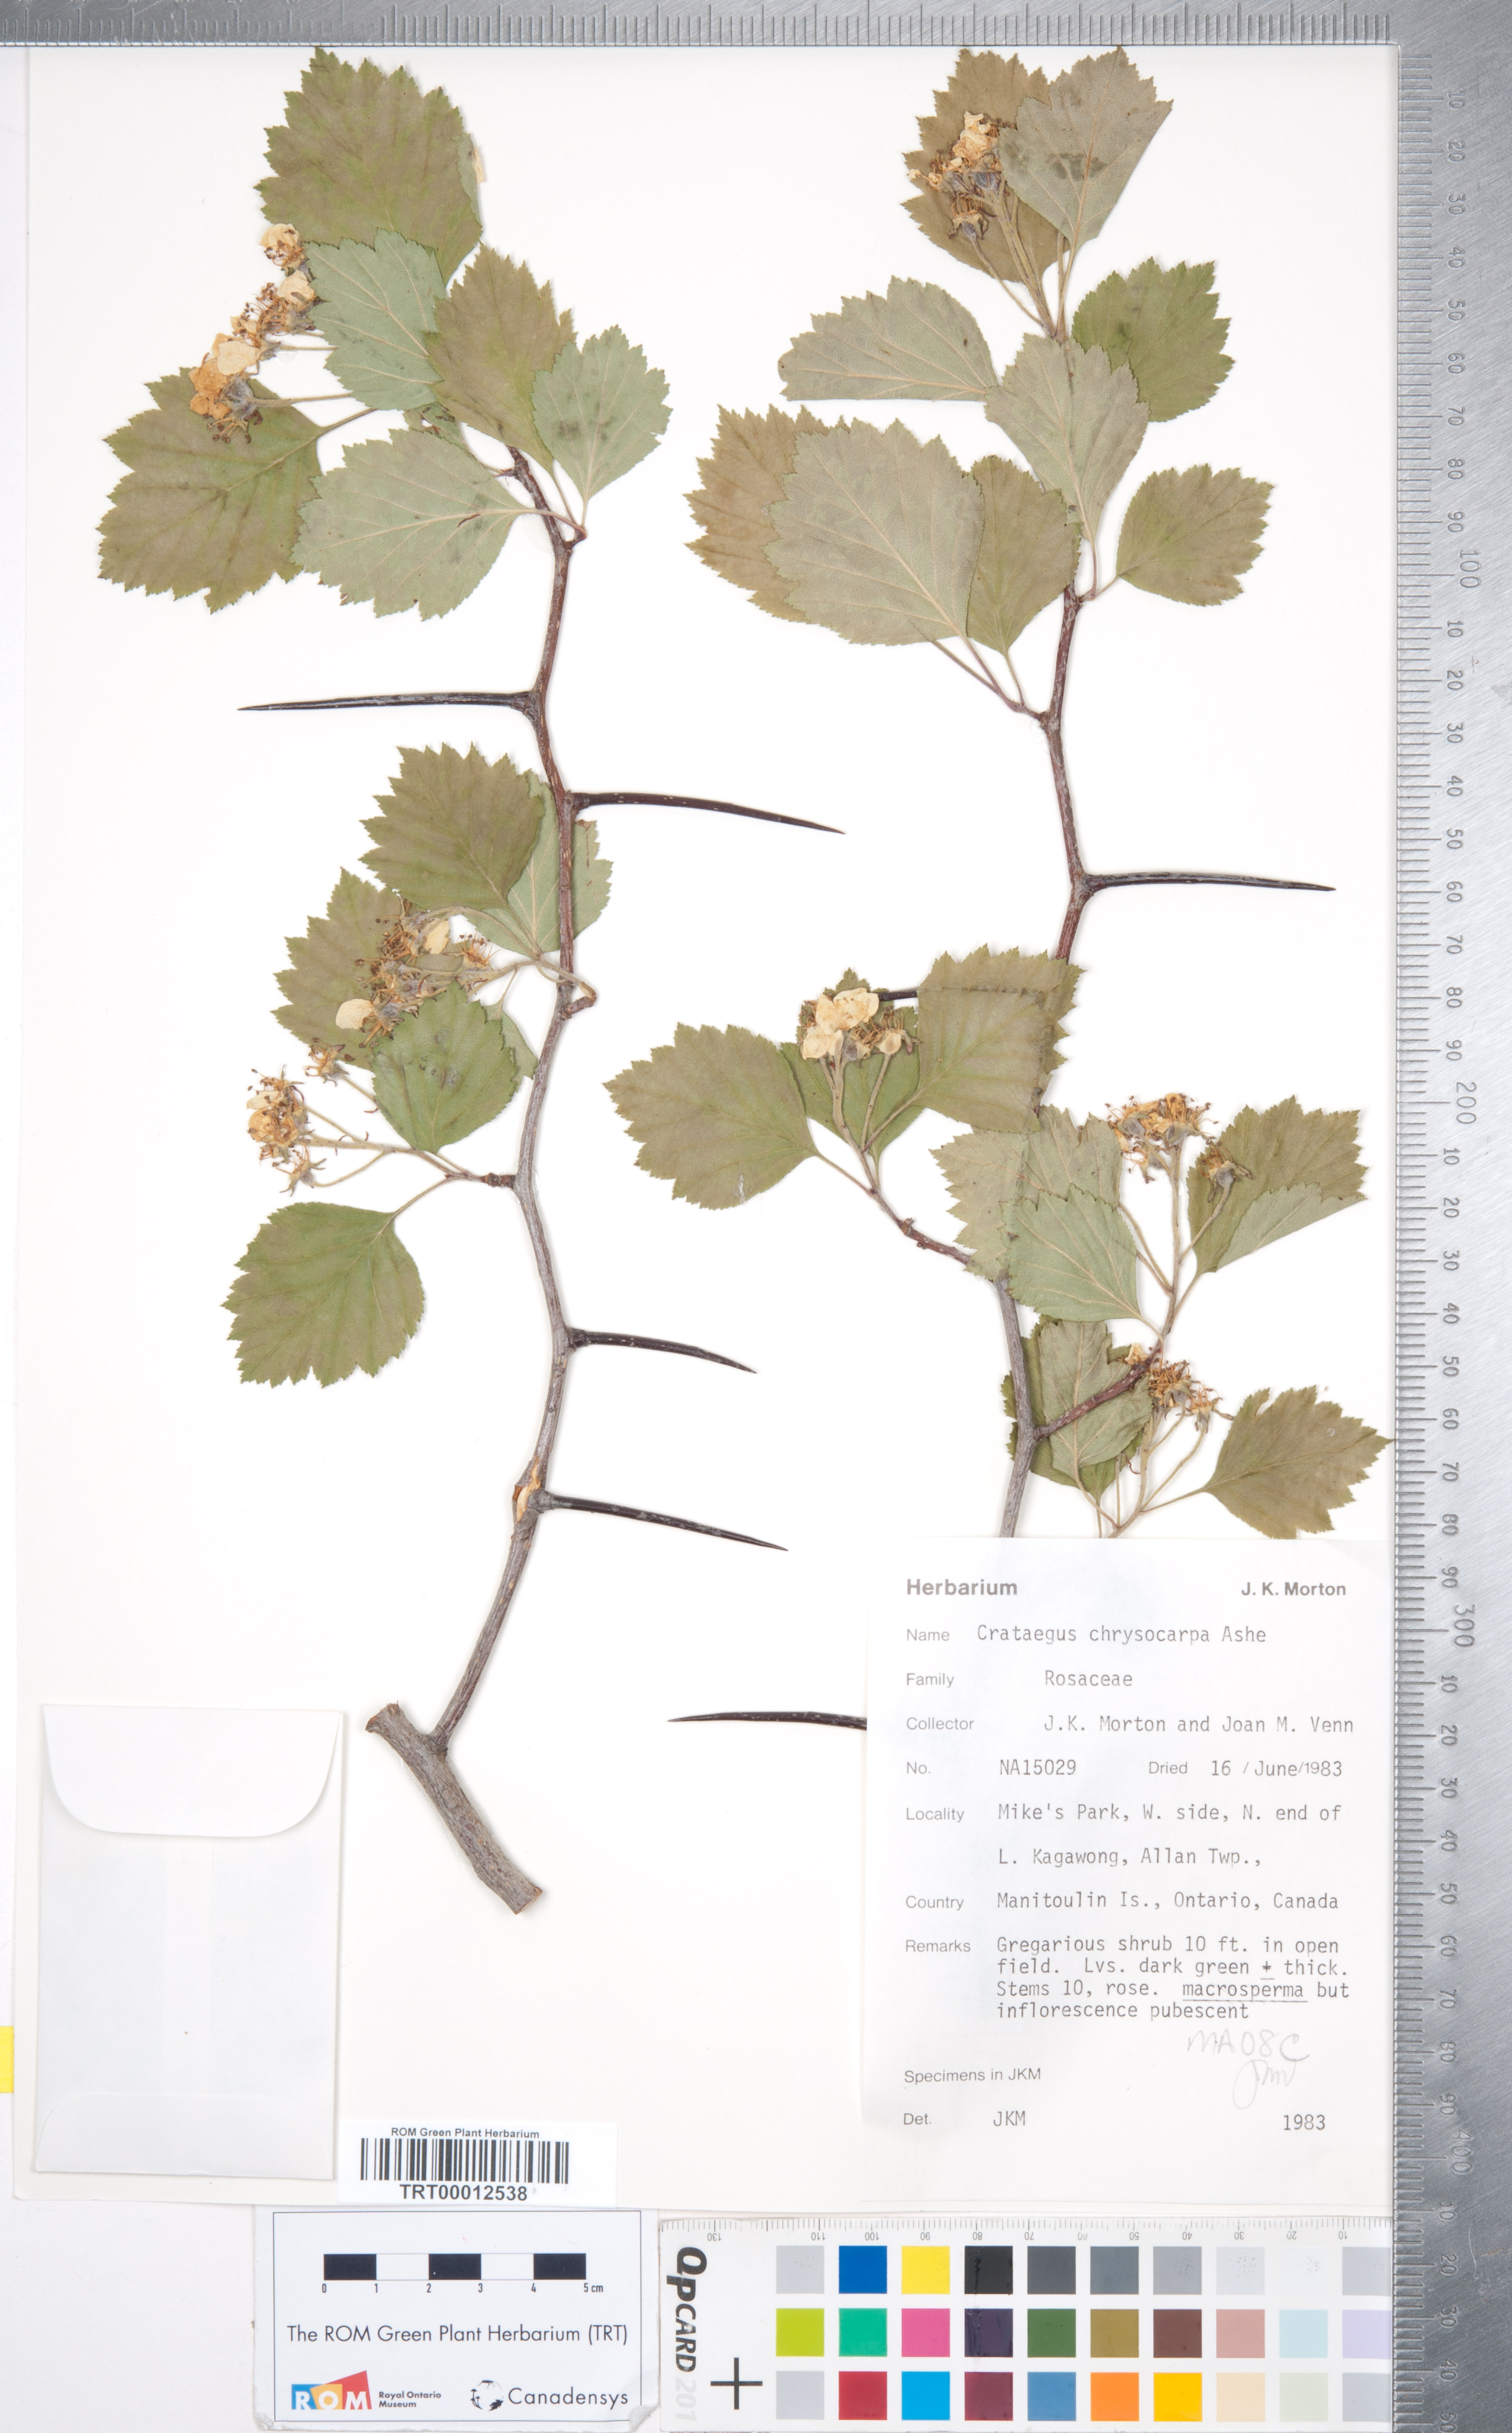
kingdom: Plantae
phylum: Tracheophyta
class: Magnoliopsida
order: Rosales
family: Rosaceae
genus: Crataegus
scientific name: Crataegus chrysocarpa
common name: Fire-berry hawthorn
